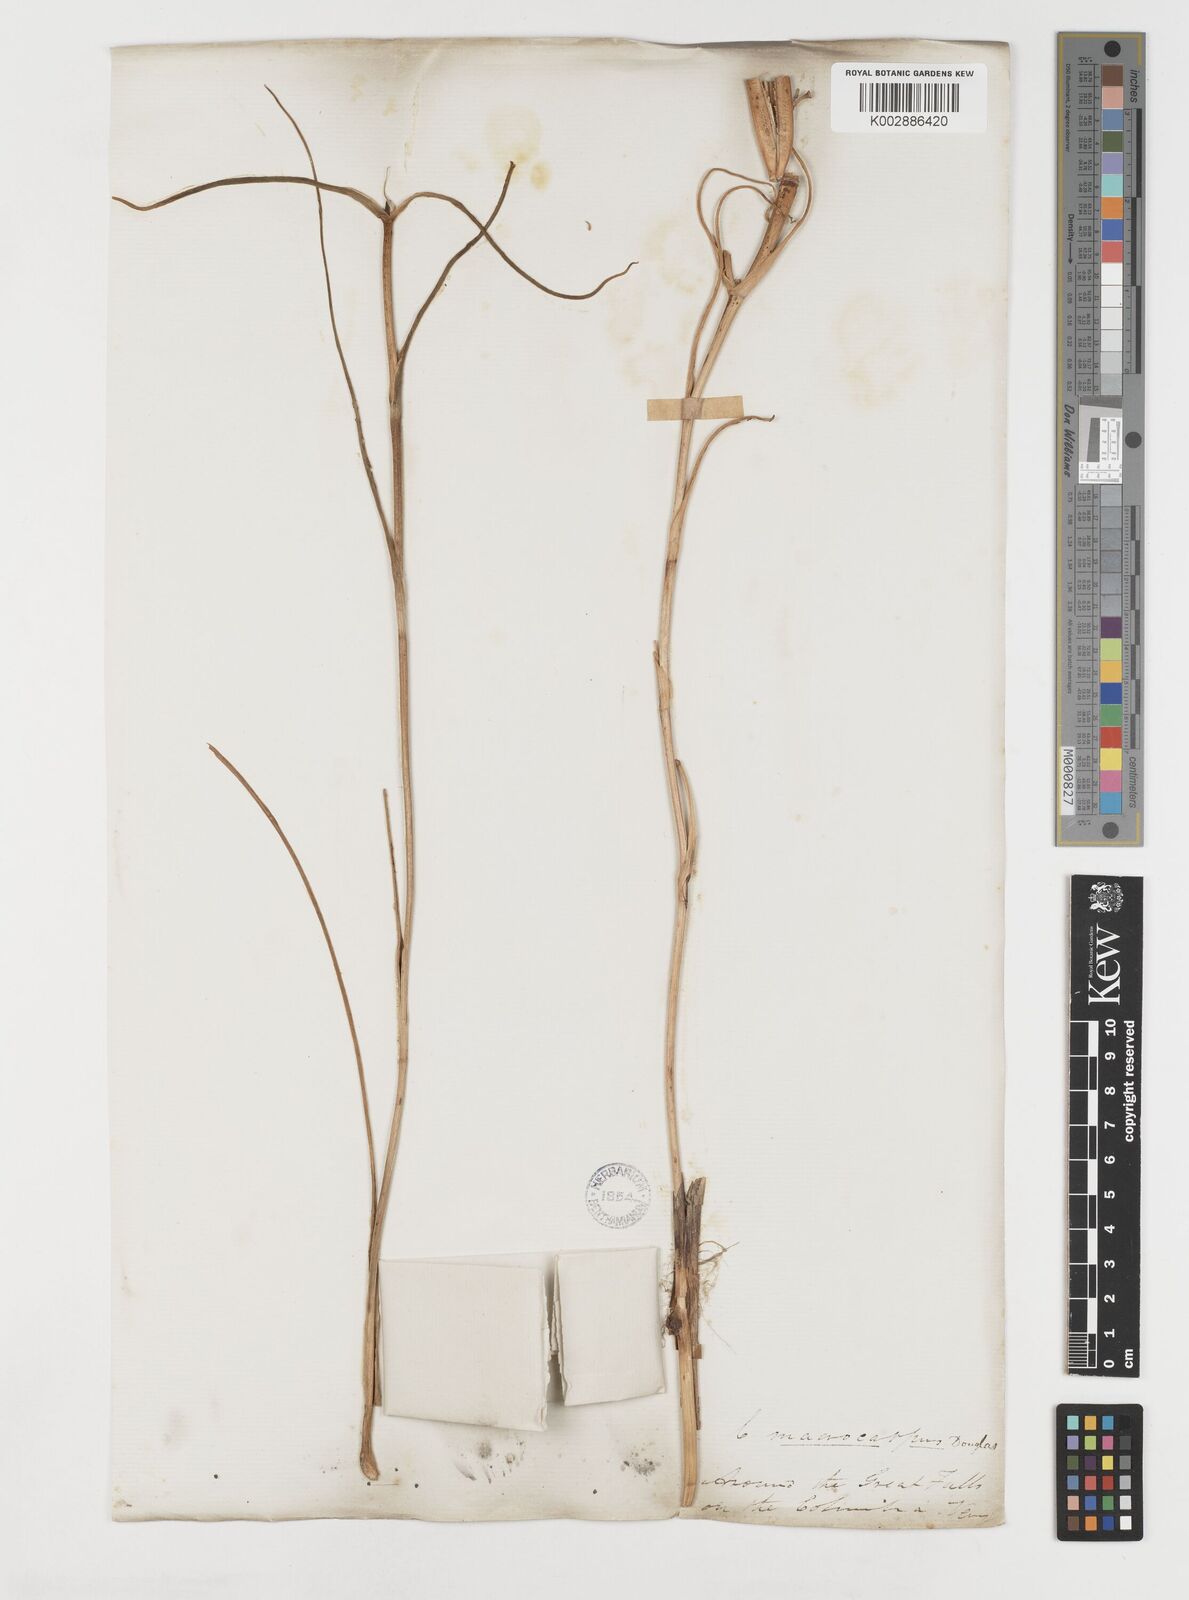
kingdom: Plantae
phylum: Tracheophyta
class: Liliopsida
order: Liliales
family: Liliaceae
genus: Calochortus
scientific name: Calochortus macrocarpus
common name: Green-band mariposa lily
